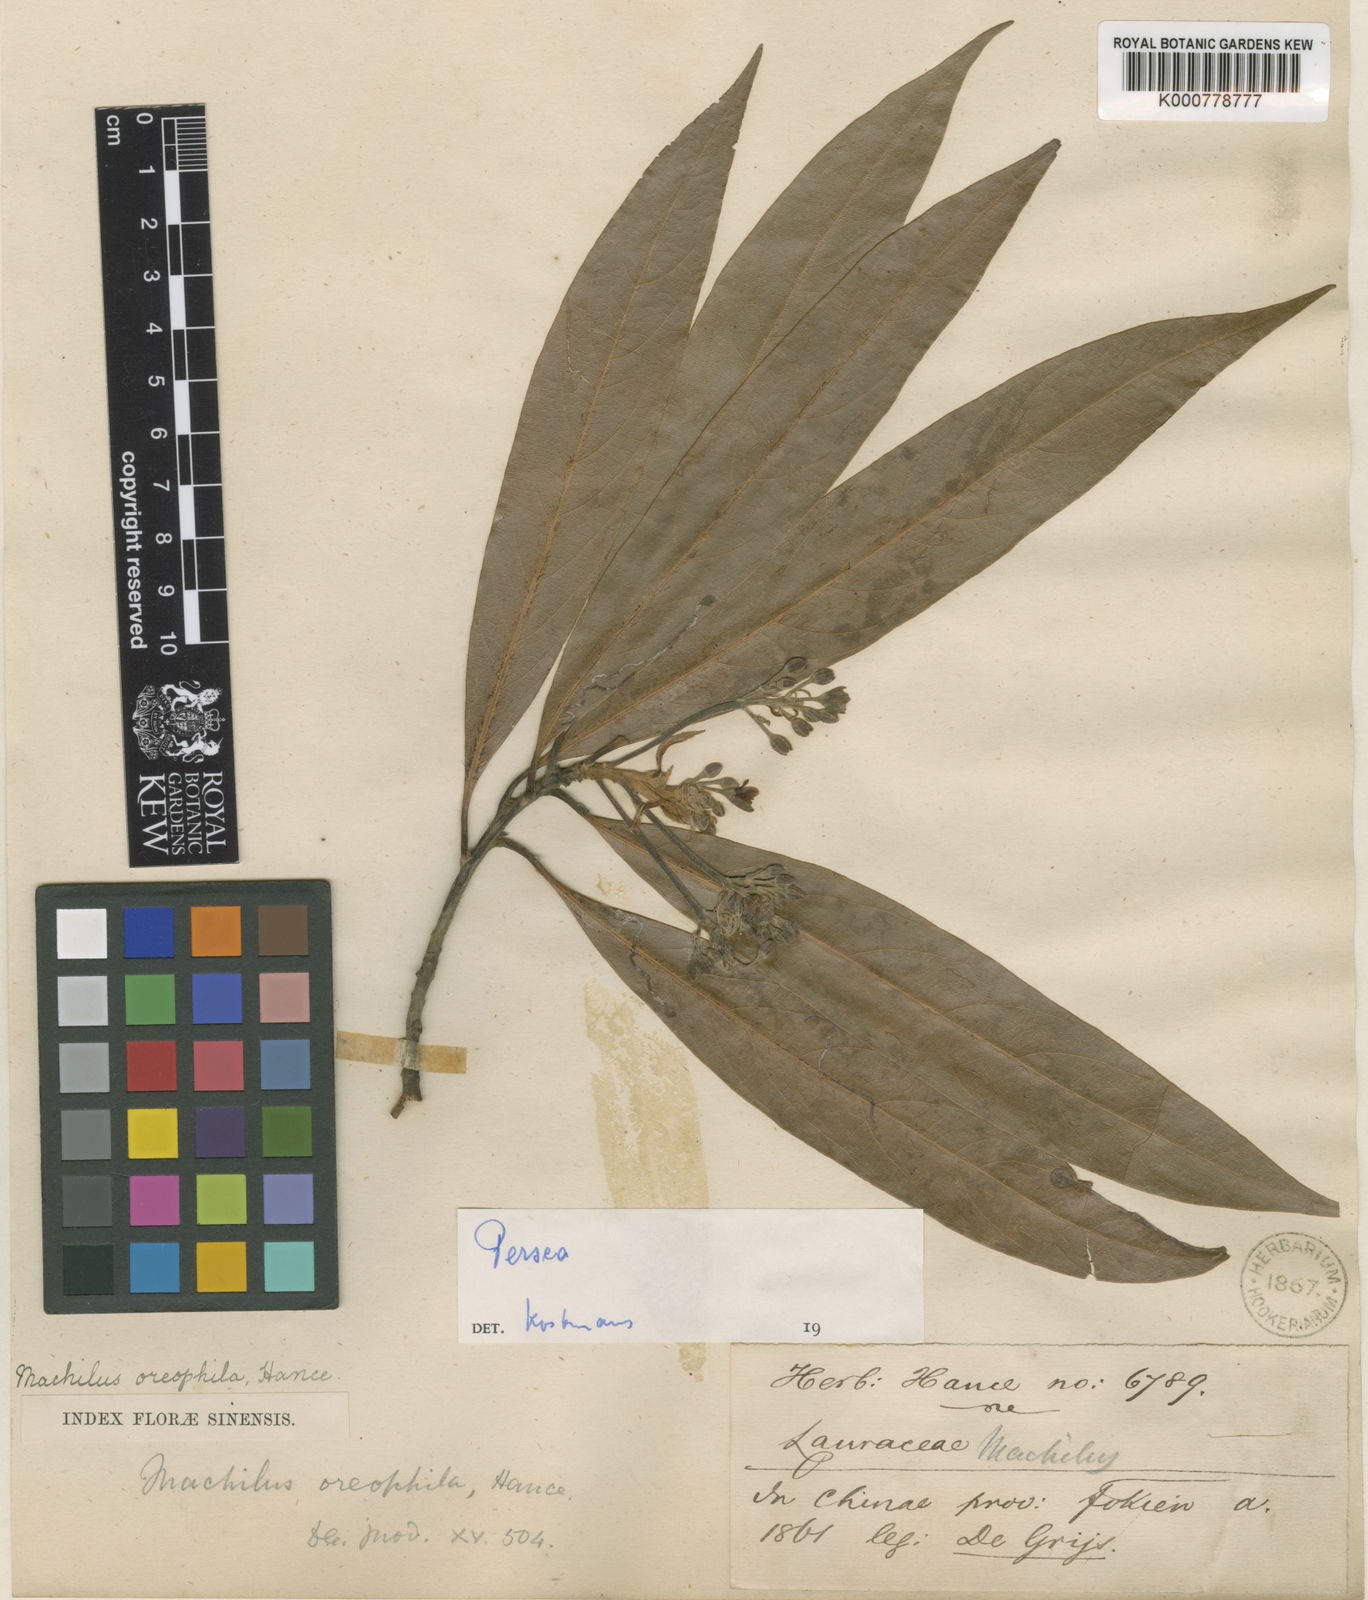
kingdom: Plantae
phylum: Tracheophyta
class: Magnoliopsida
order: Laurales
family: Lauraceae
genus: Machilus
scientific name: Machilus oreophila
